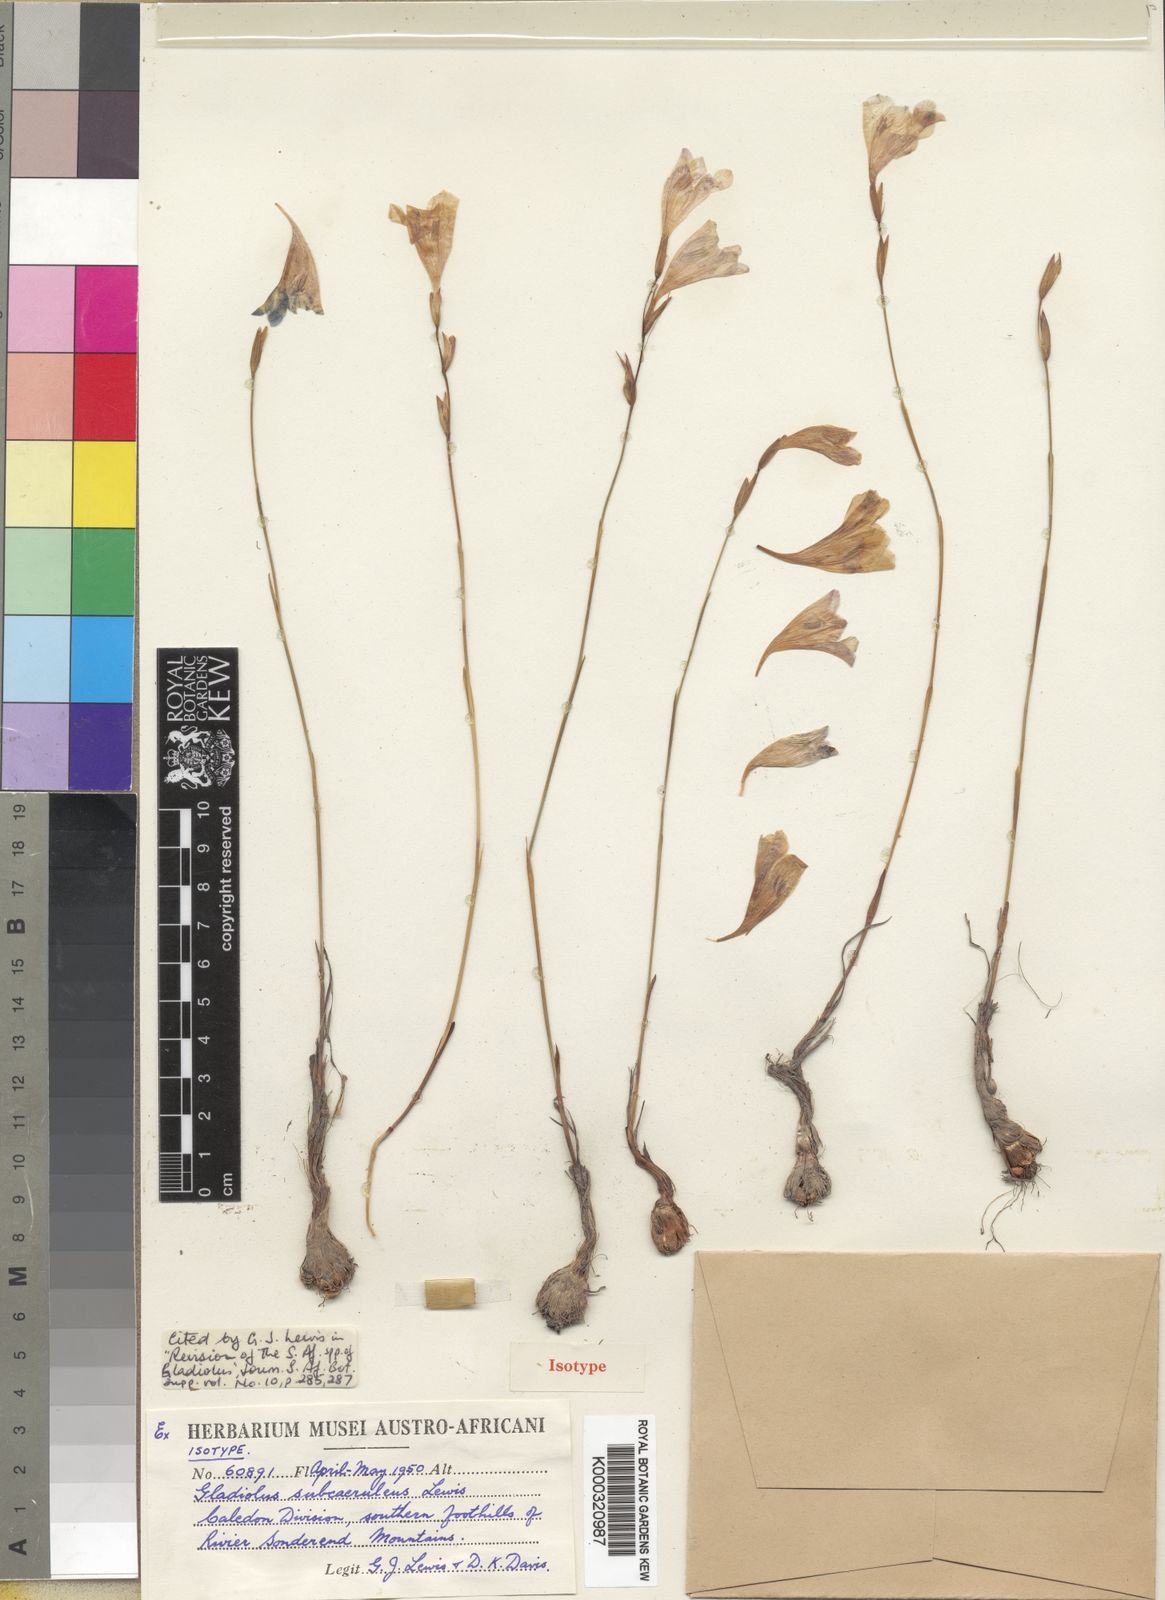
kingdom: Plantae
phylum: Tracheophyta
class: Liliopsida
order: Asparagales
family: Iridaceae
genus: Gladiolus
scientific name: Gladiolus subcaeruleus
